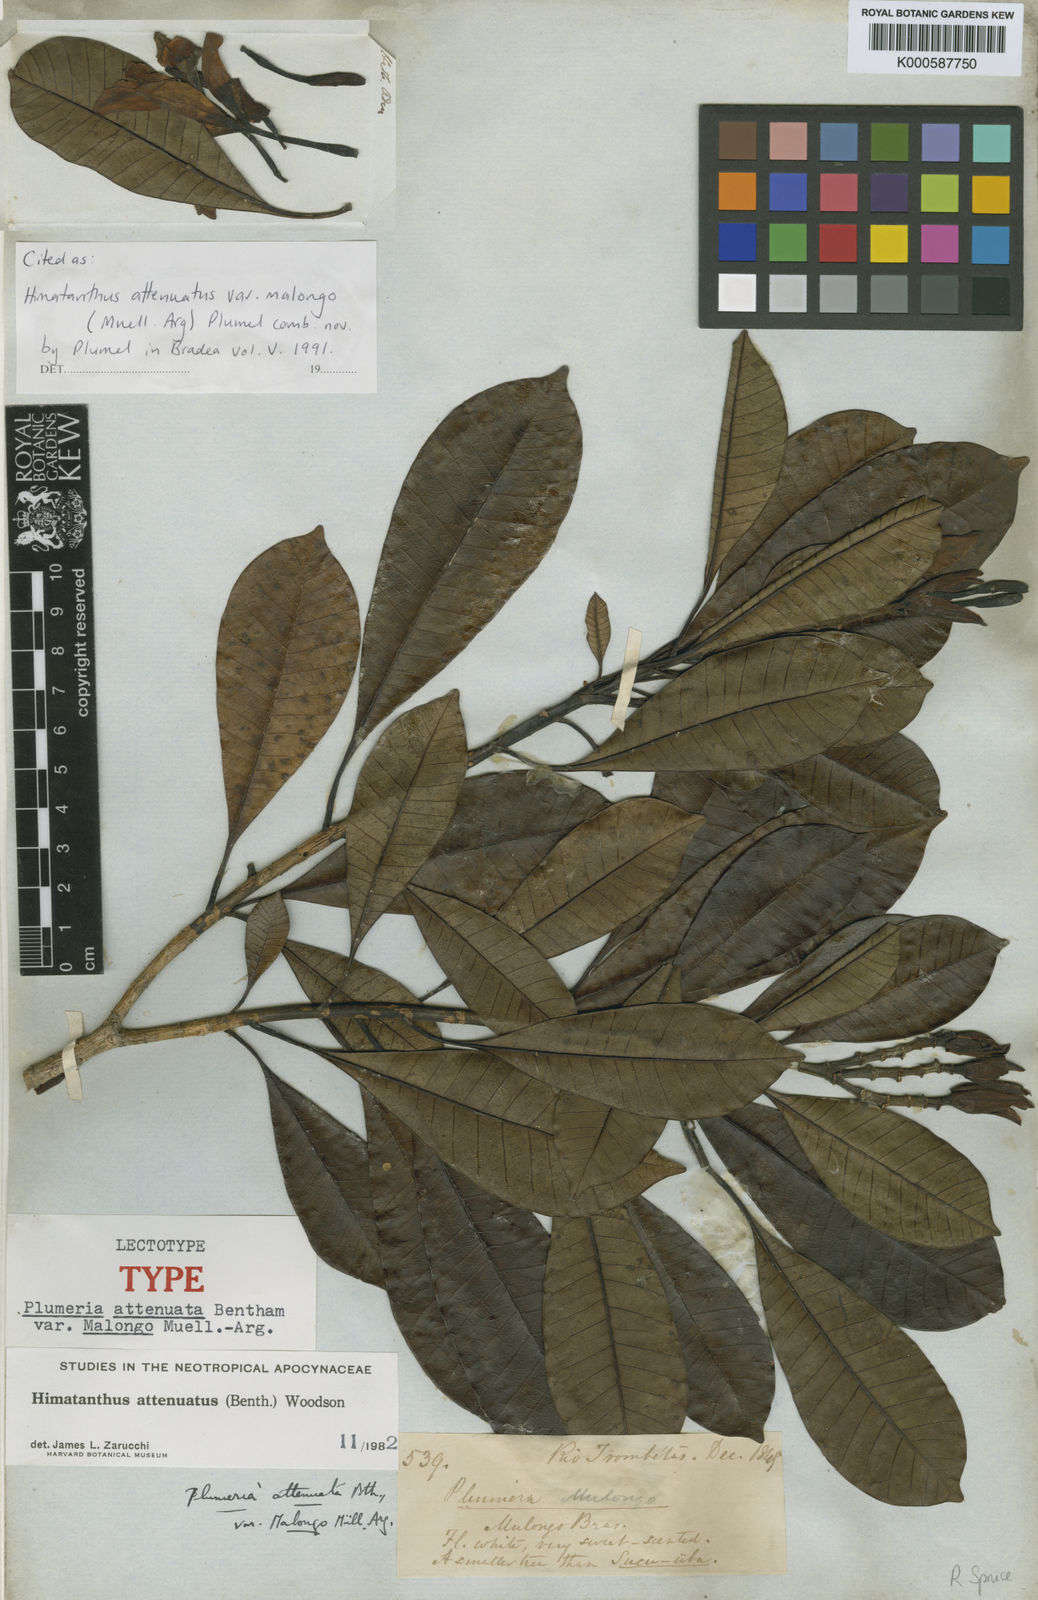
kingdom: Plantae
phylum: Tracheophyta
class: Magnoliopsida
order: Gentianales
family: Apocynaceae
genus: Himatanthus
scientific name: Himatanthus attenuatus
